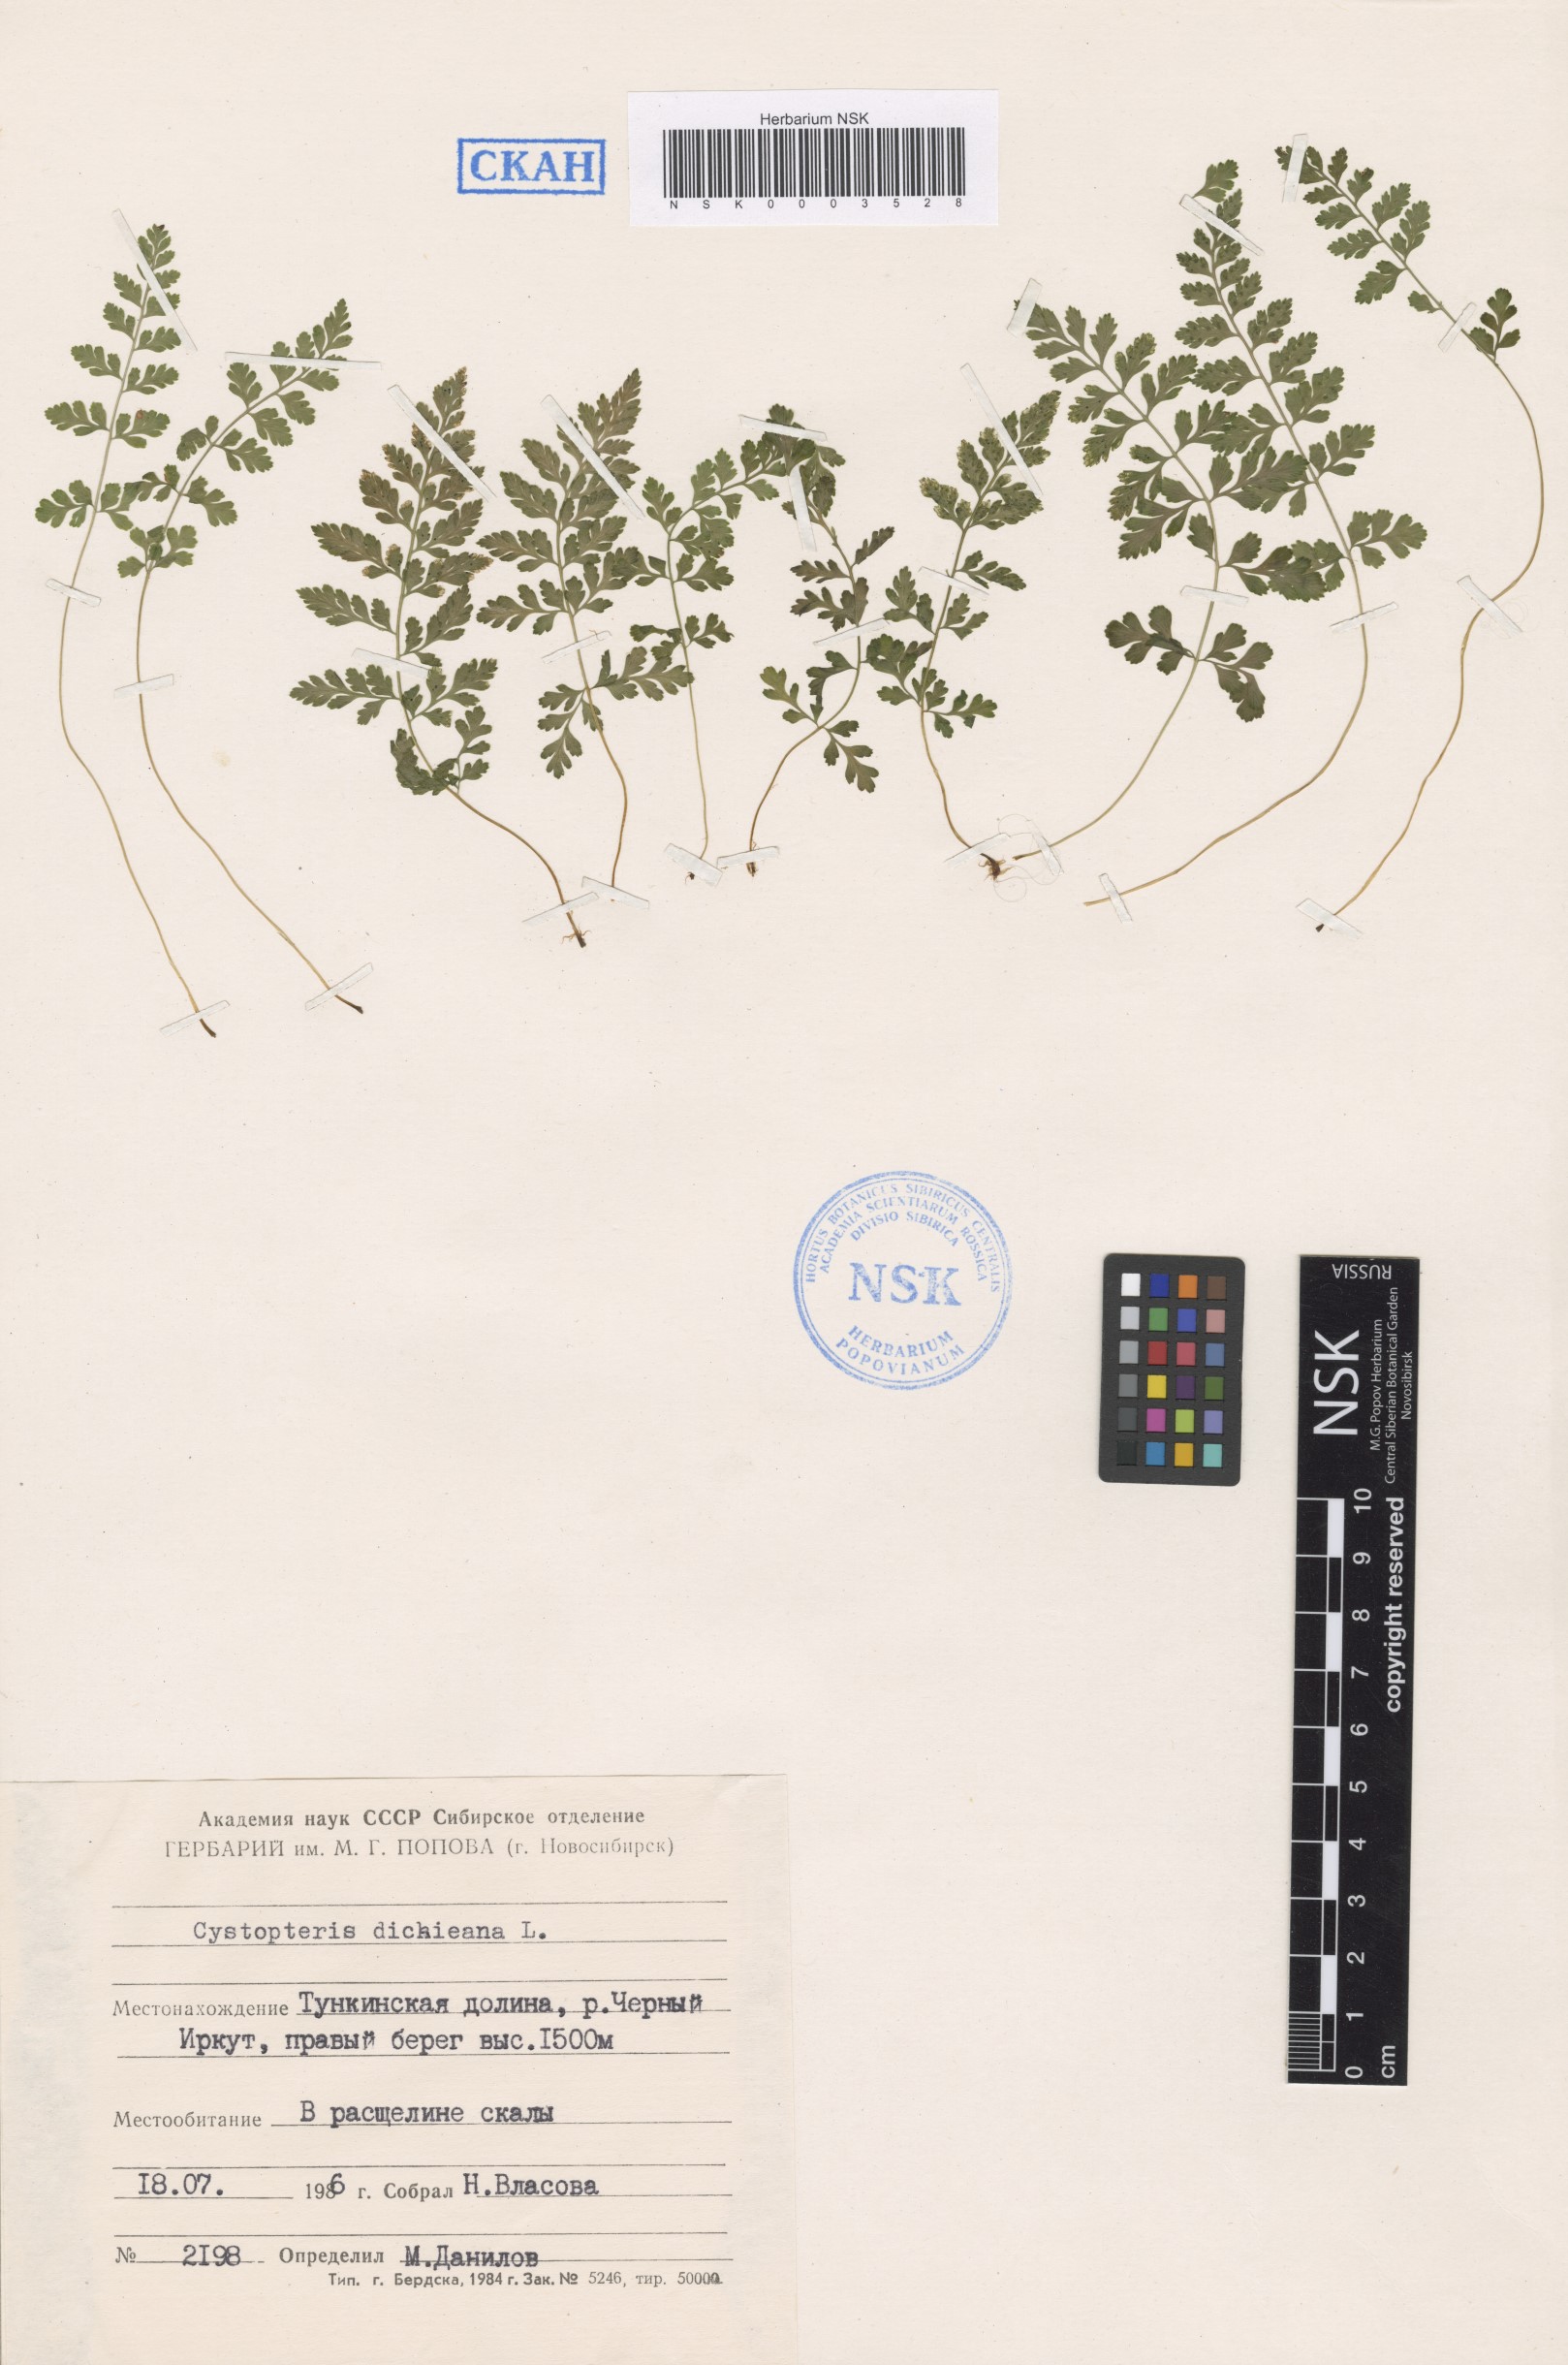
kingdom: Plantae
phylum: Tracheophyta
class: Polypodiopsida
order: Polypodiales
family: Cystopteridaceae
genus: Cystopteris
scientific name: Cystopteris dickieana
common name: Dickie's bladder-fern
